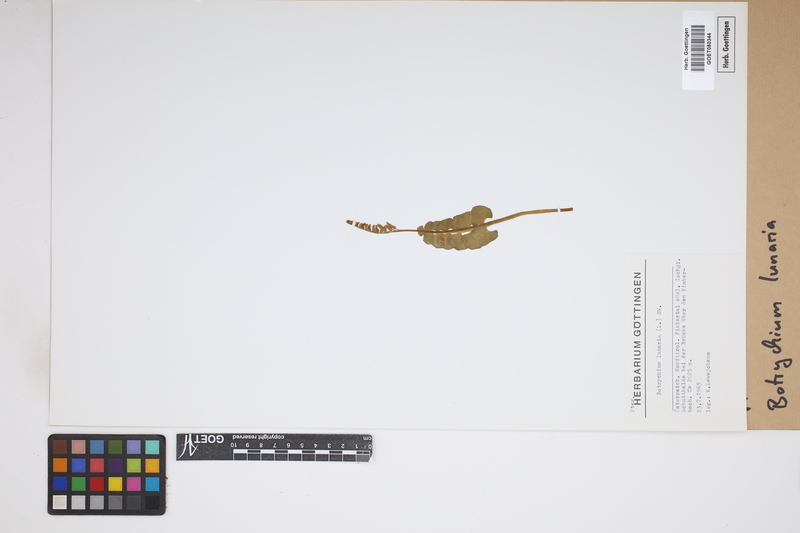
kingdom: Plantae
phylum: Tracheophyta
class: Polypodiopsida
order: Ophioglossales
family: Ophioglossaceae
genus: Botrychium
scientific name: Botrychium lunaria
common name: Moonwort
